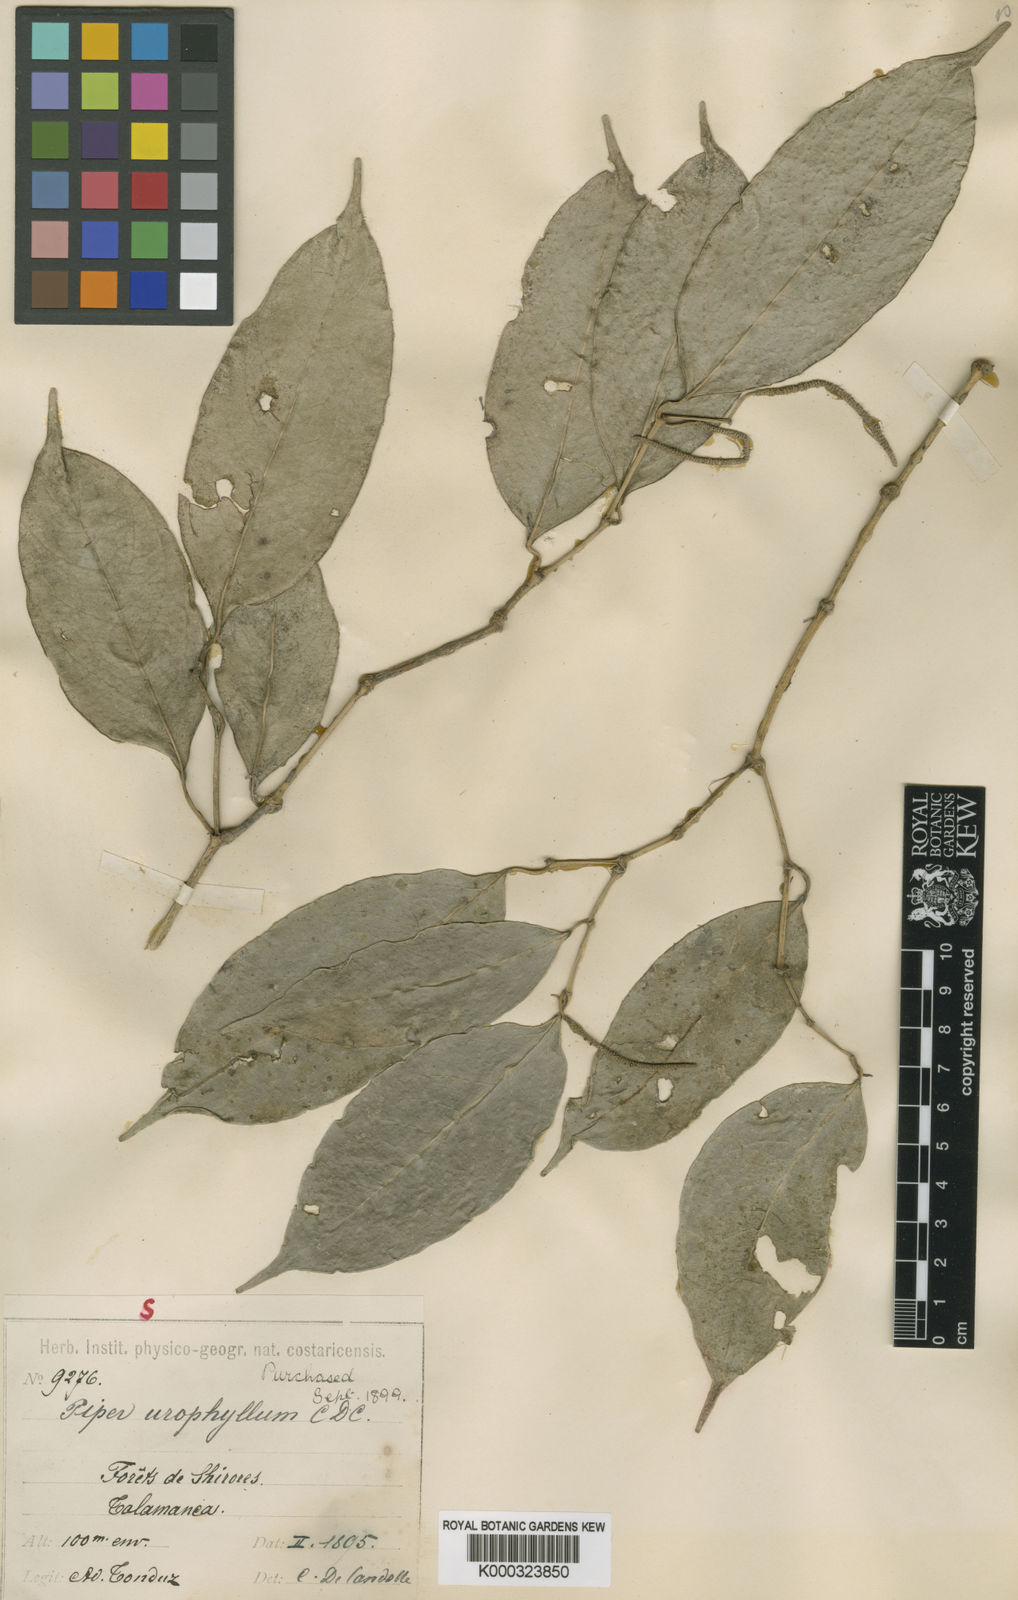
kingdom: Plantae
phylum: Tracheophyta
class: Magnoliopsida
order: Piperales
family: Piperaceae
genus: Piper
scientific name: Piper urophyllum
